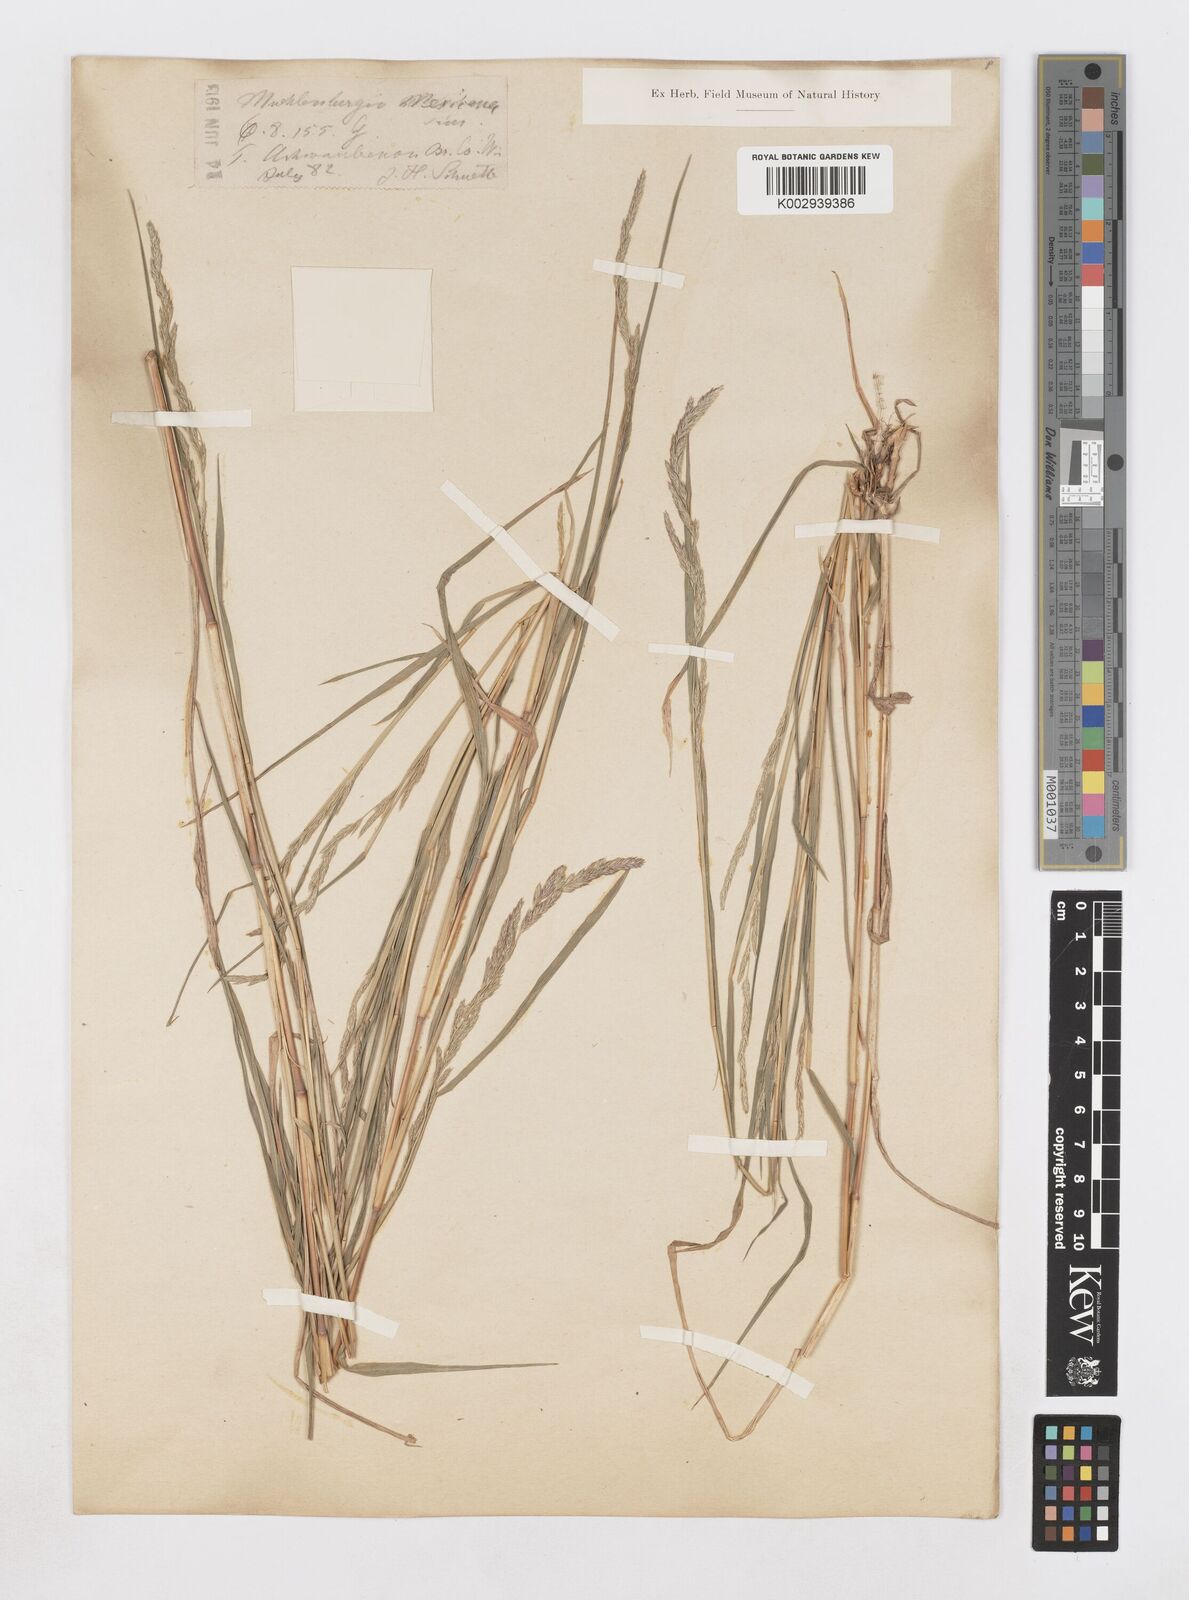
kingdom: Plantae
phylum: Tracheophyta
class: Liliopsida
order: Poales
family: Poaceae
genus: Muhlenbergia
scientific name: Muhlenbergia mexicana
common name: Mexican muhly
